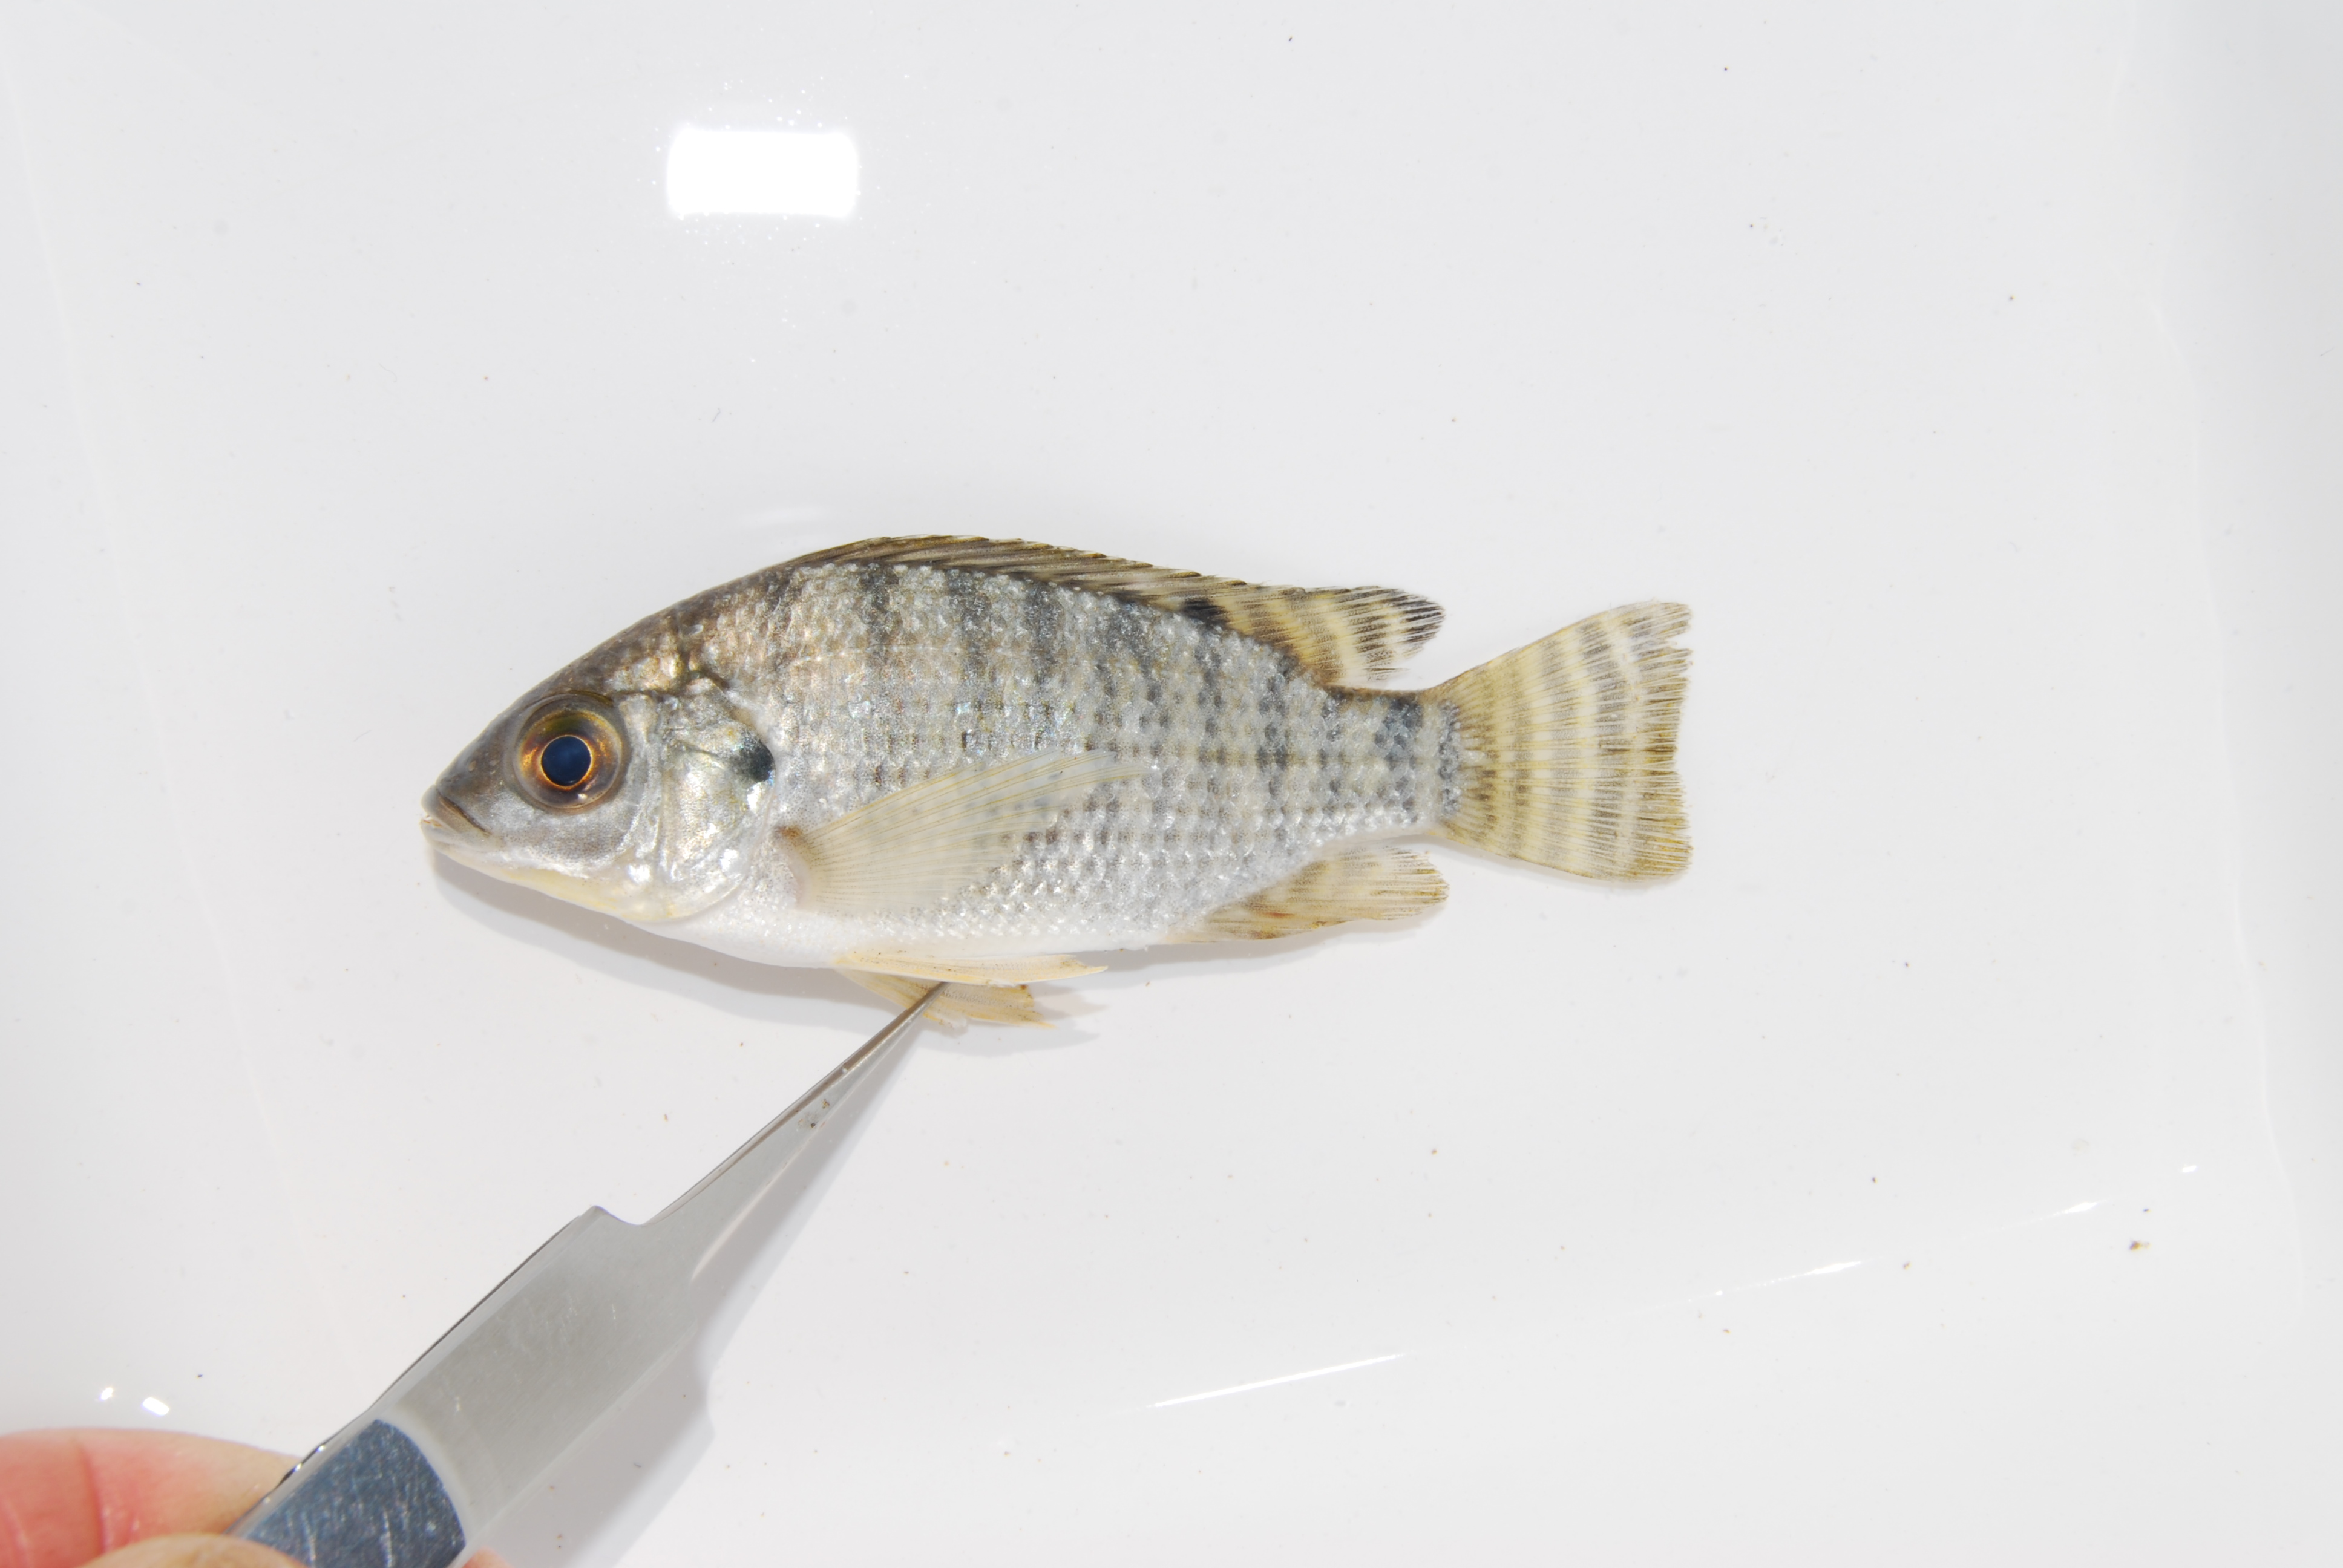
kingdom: Animalia
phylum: Chordata
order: Perciformes
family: Cichlidae
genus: Oreochromis
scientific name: Oreochromis niloticus
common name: Nile tilapia
